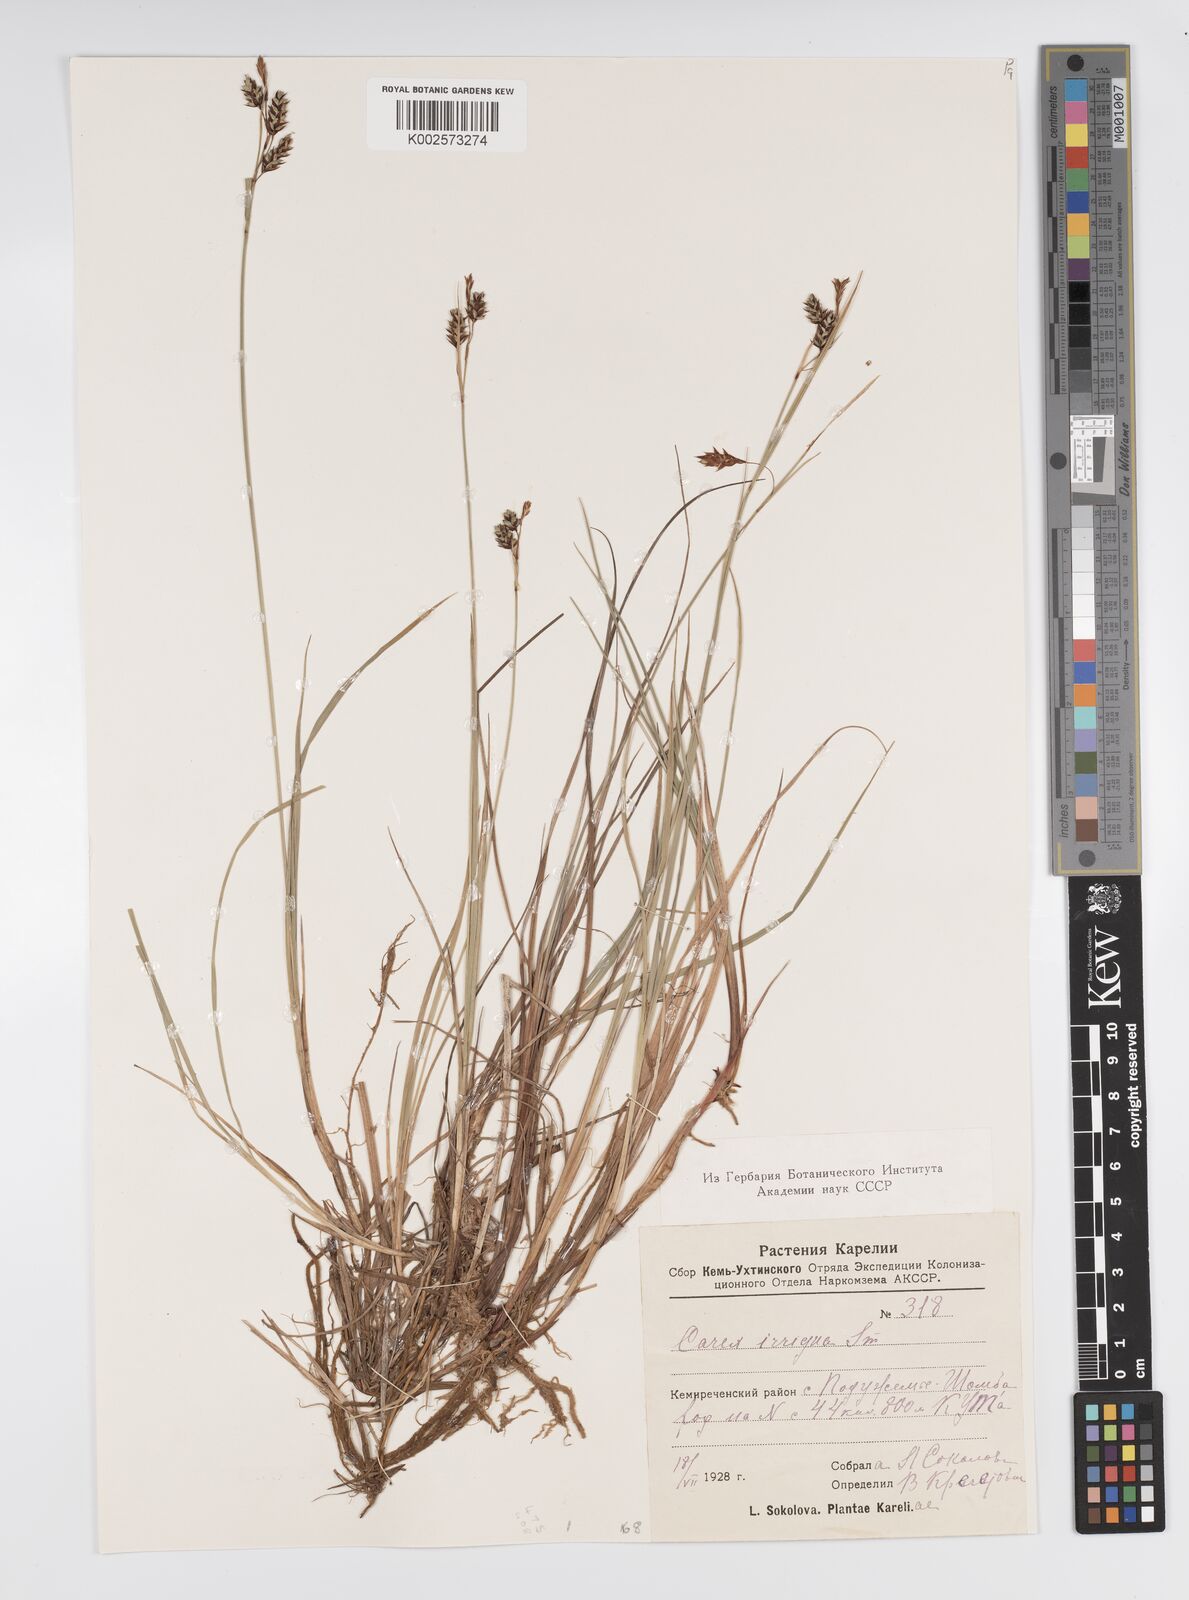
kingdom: Plantae
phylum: Tracheophyta
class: Liliopsida
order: Poales
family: Cyperaceae
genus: Carex
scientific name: Carex magellanica
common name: Bog sedge
